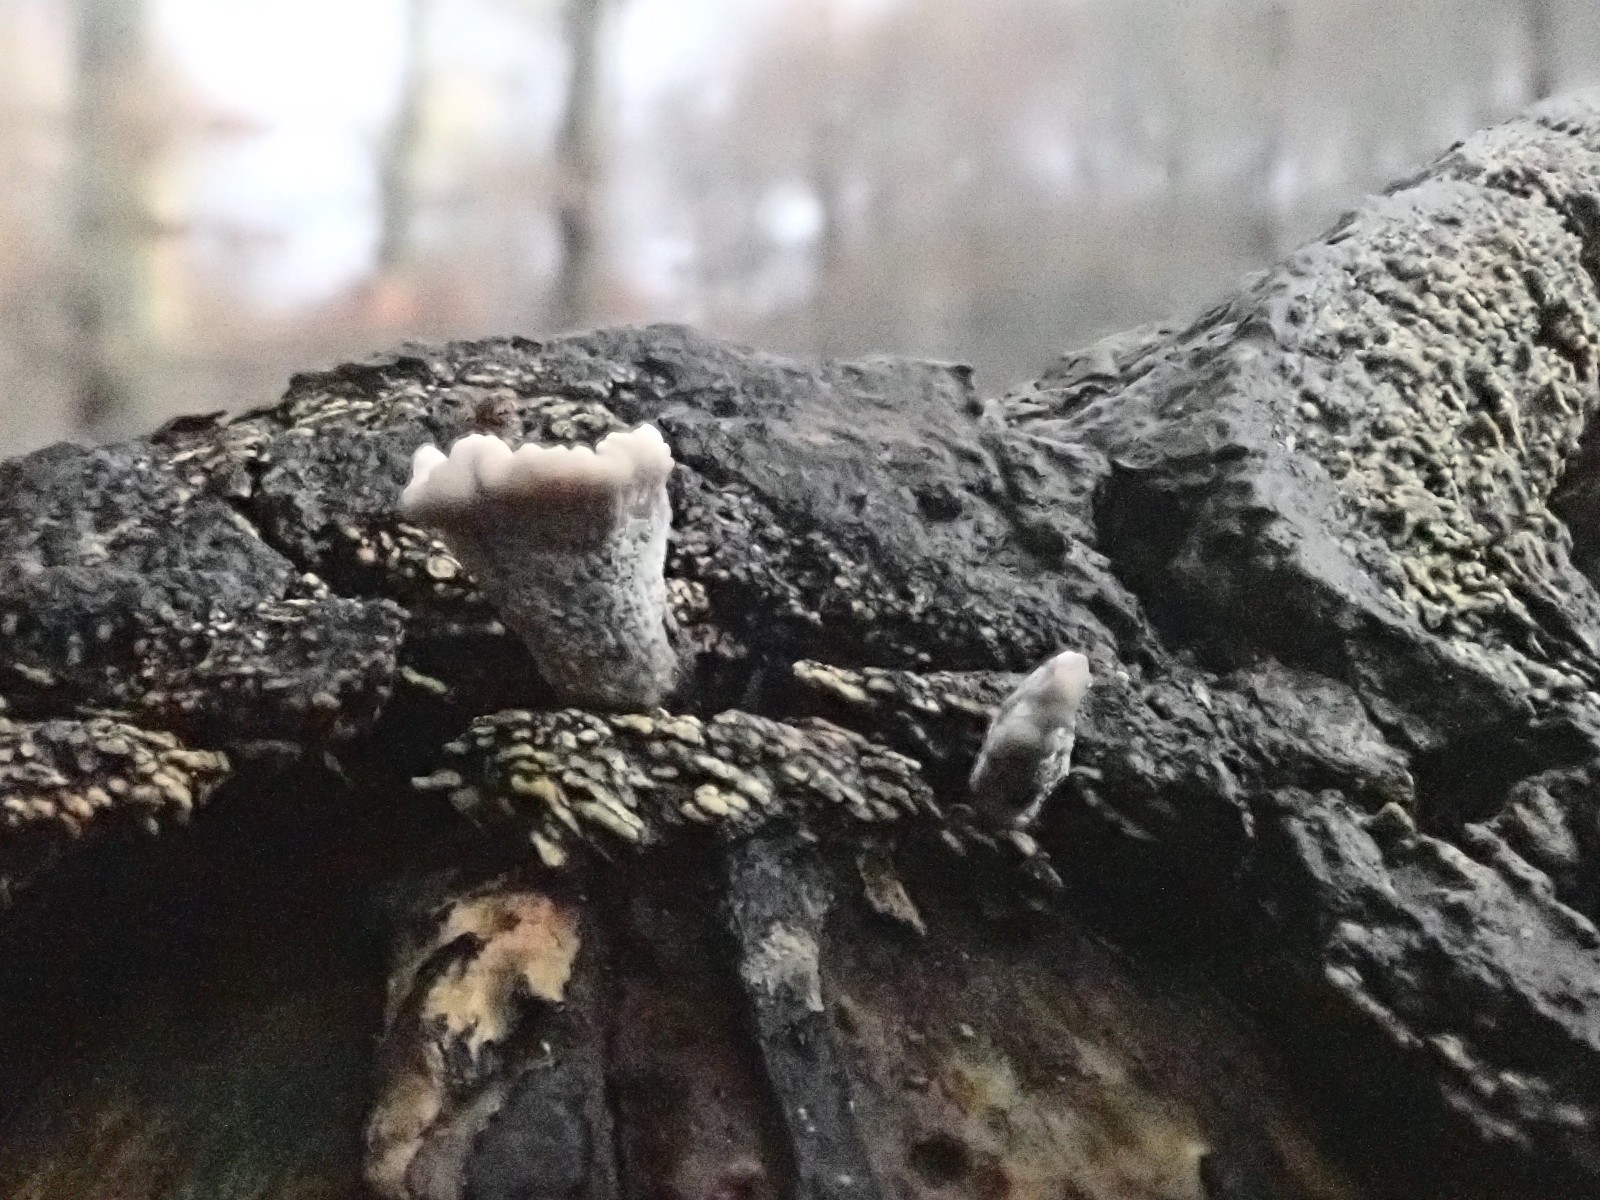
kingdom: Fungi
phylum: Ascomycota
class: Sordariomycetes
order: Xylariales
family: Xylariaceae
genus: Xylaria
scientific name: Xylaria hypoxylon
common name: grenet stødsvamp
